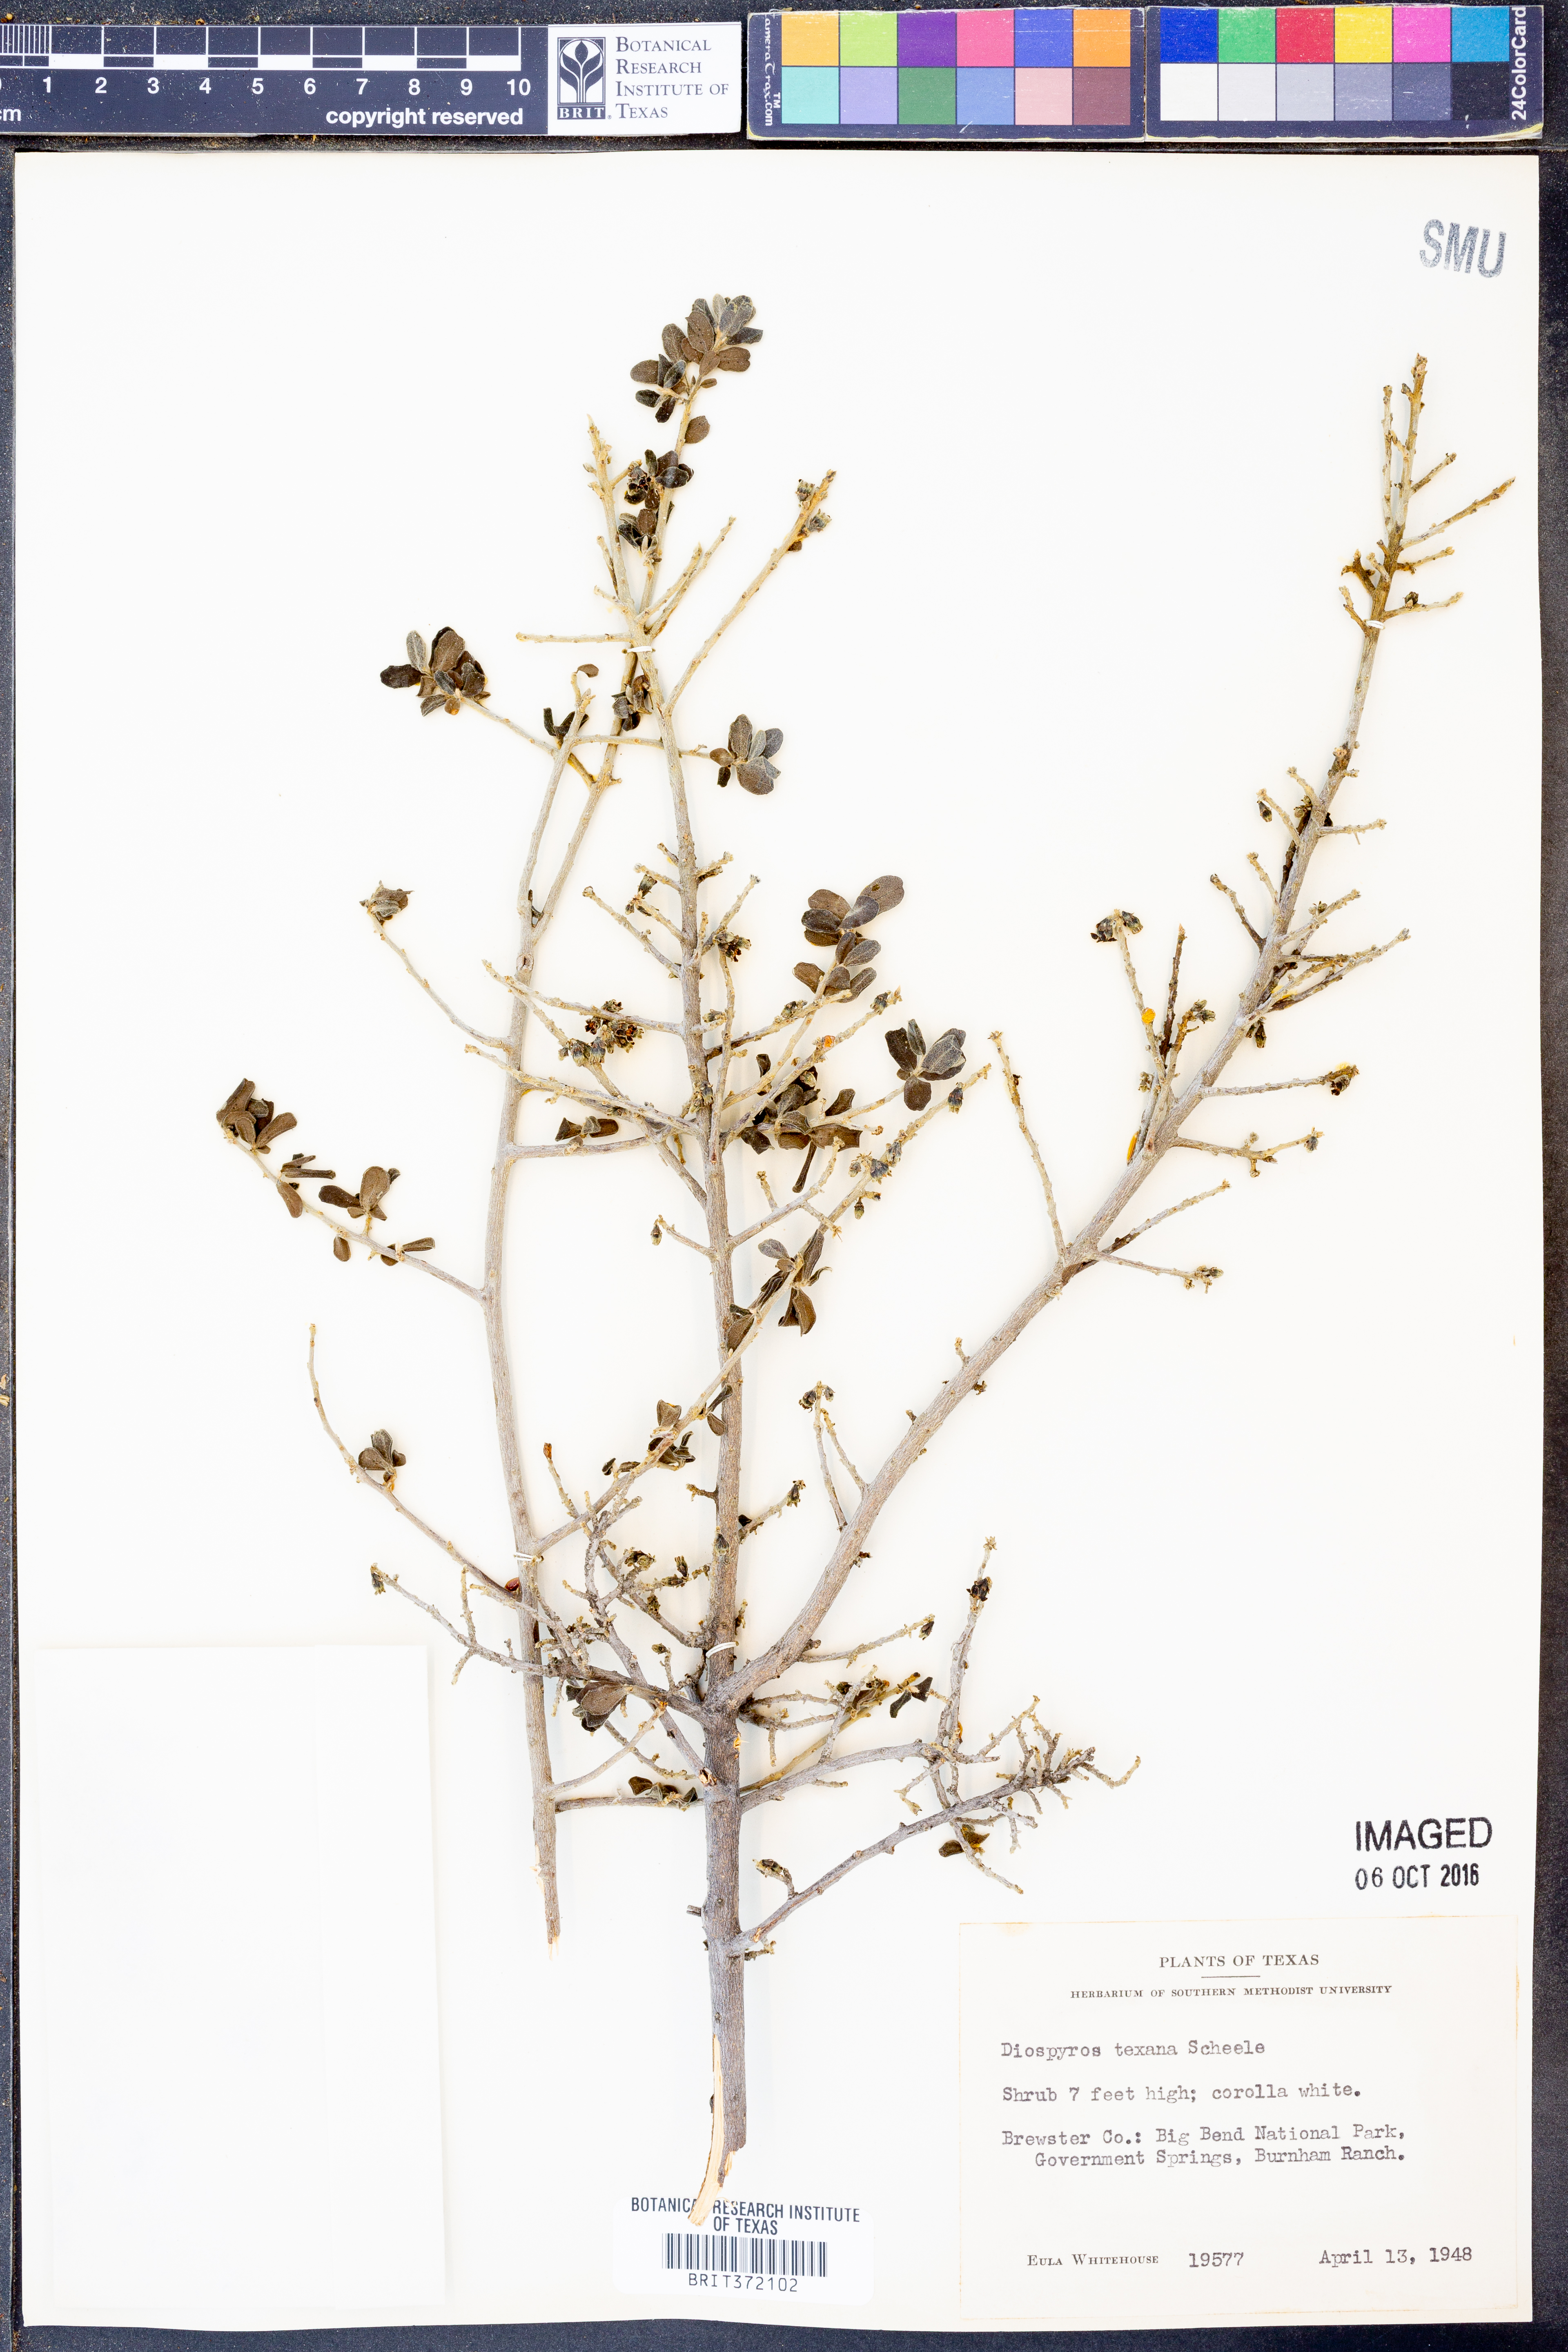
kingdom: Plantae
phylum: Tracheophyta
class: Magnoliopsida
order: Ericales
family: Ebenaceae
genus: Diospyros
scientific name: Diospyros texana
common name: Texas persimmon
